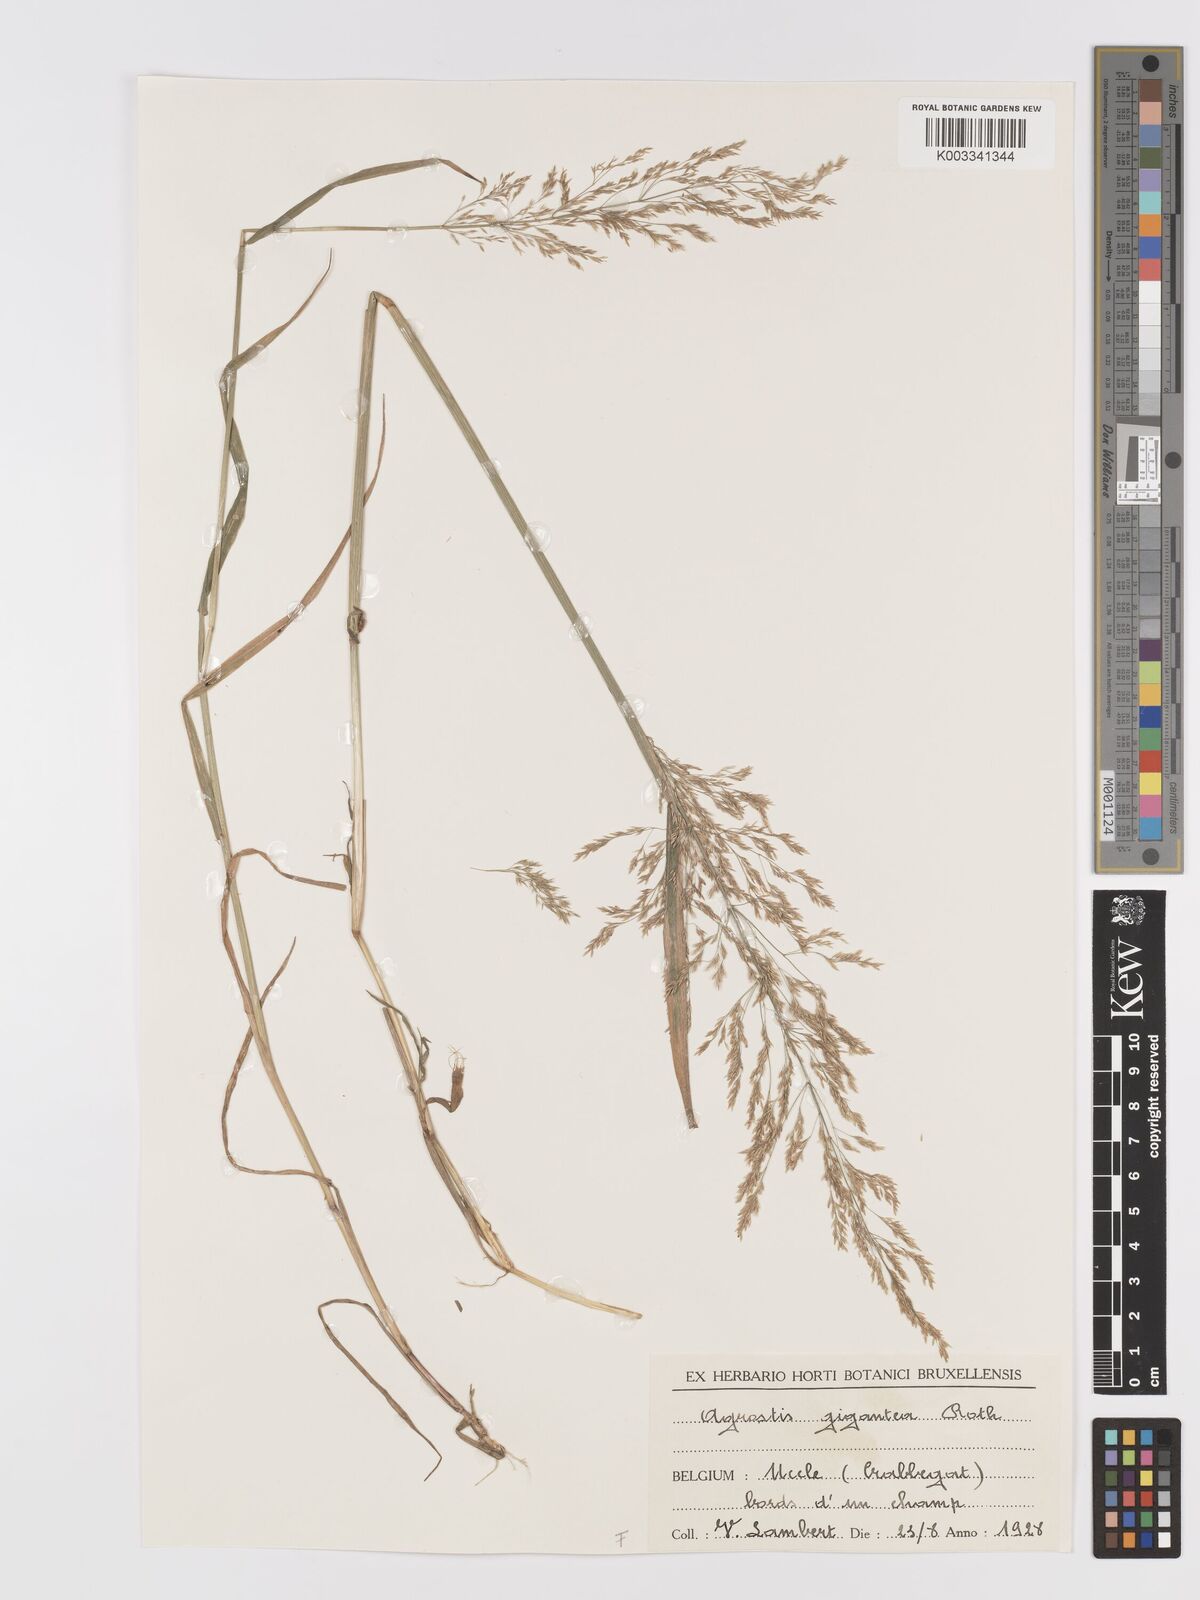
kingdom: Plantae
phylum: Tracheophyta
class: Liliopsida
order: Poales
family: Poaceae
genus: Agrostis
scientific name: Agrostis gigantea
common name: Black bent
